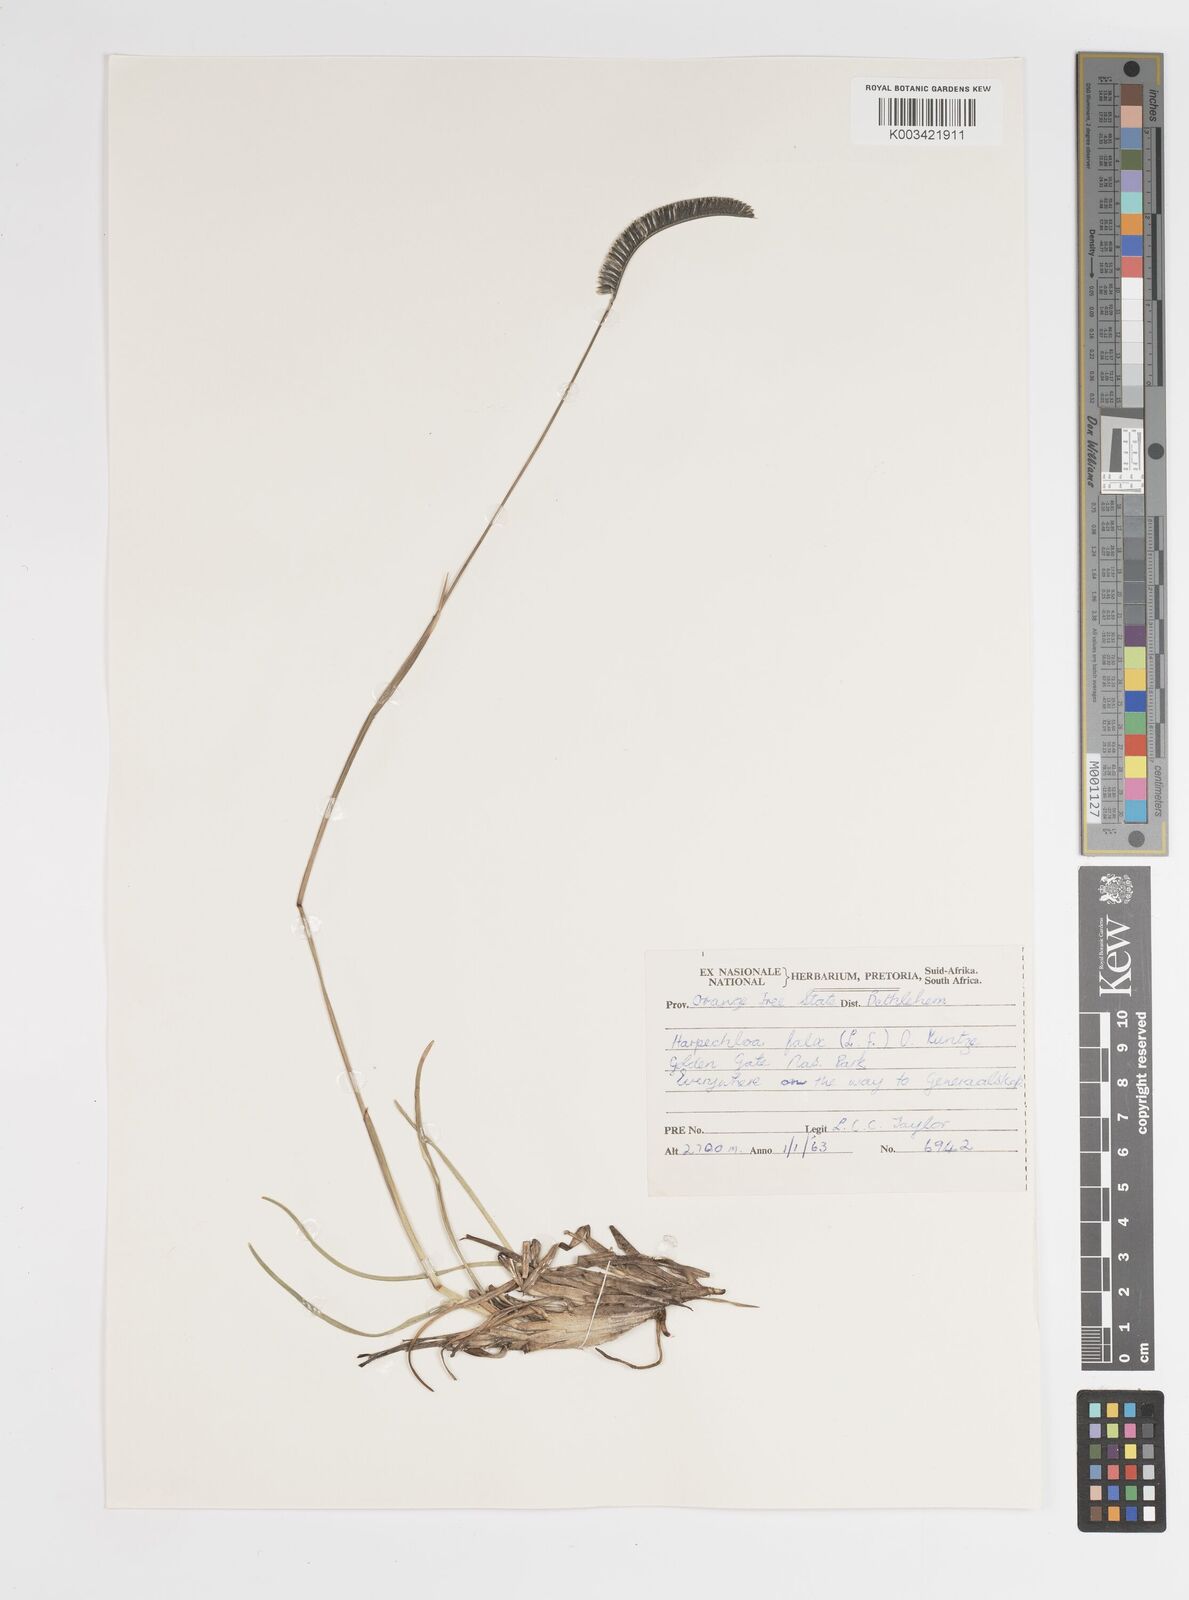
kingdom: Plantae
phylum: Tracheophyta
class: Liliopsida
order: Poales
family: Poaceae
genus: Harpochloa
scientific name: Harpochloa falx
